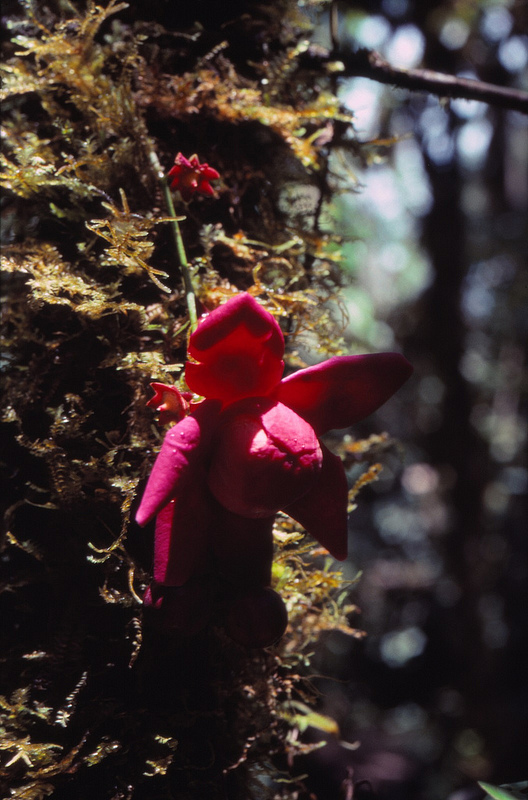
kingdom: Plantae
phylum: Tracheophyta
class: Magnoliopsida
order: Ericales
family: Lecythidaceae
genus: Eschweilera
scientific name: Eschweilera rimbachii
